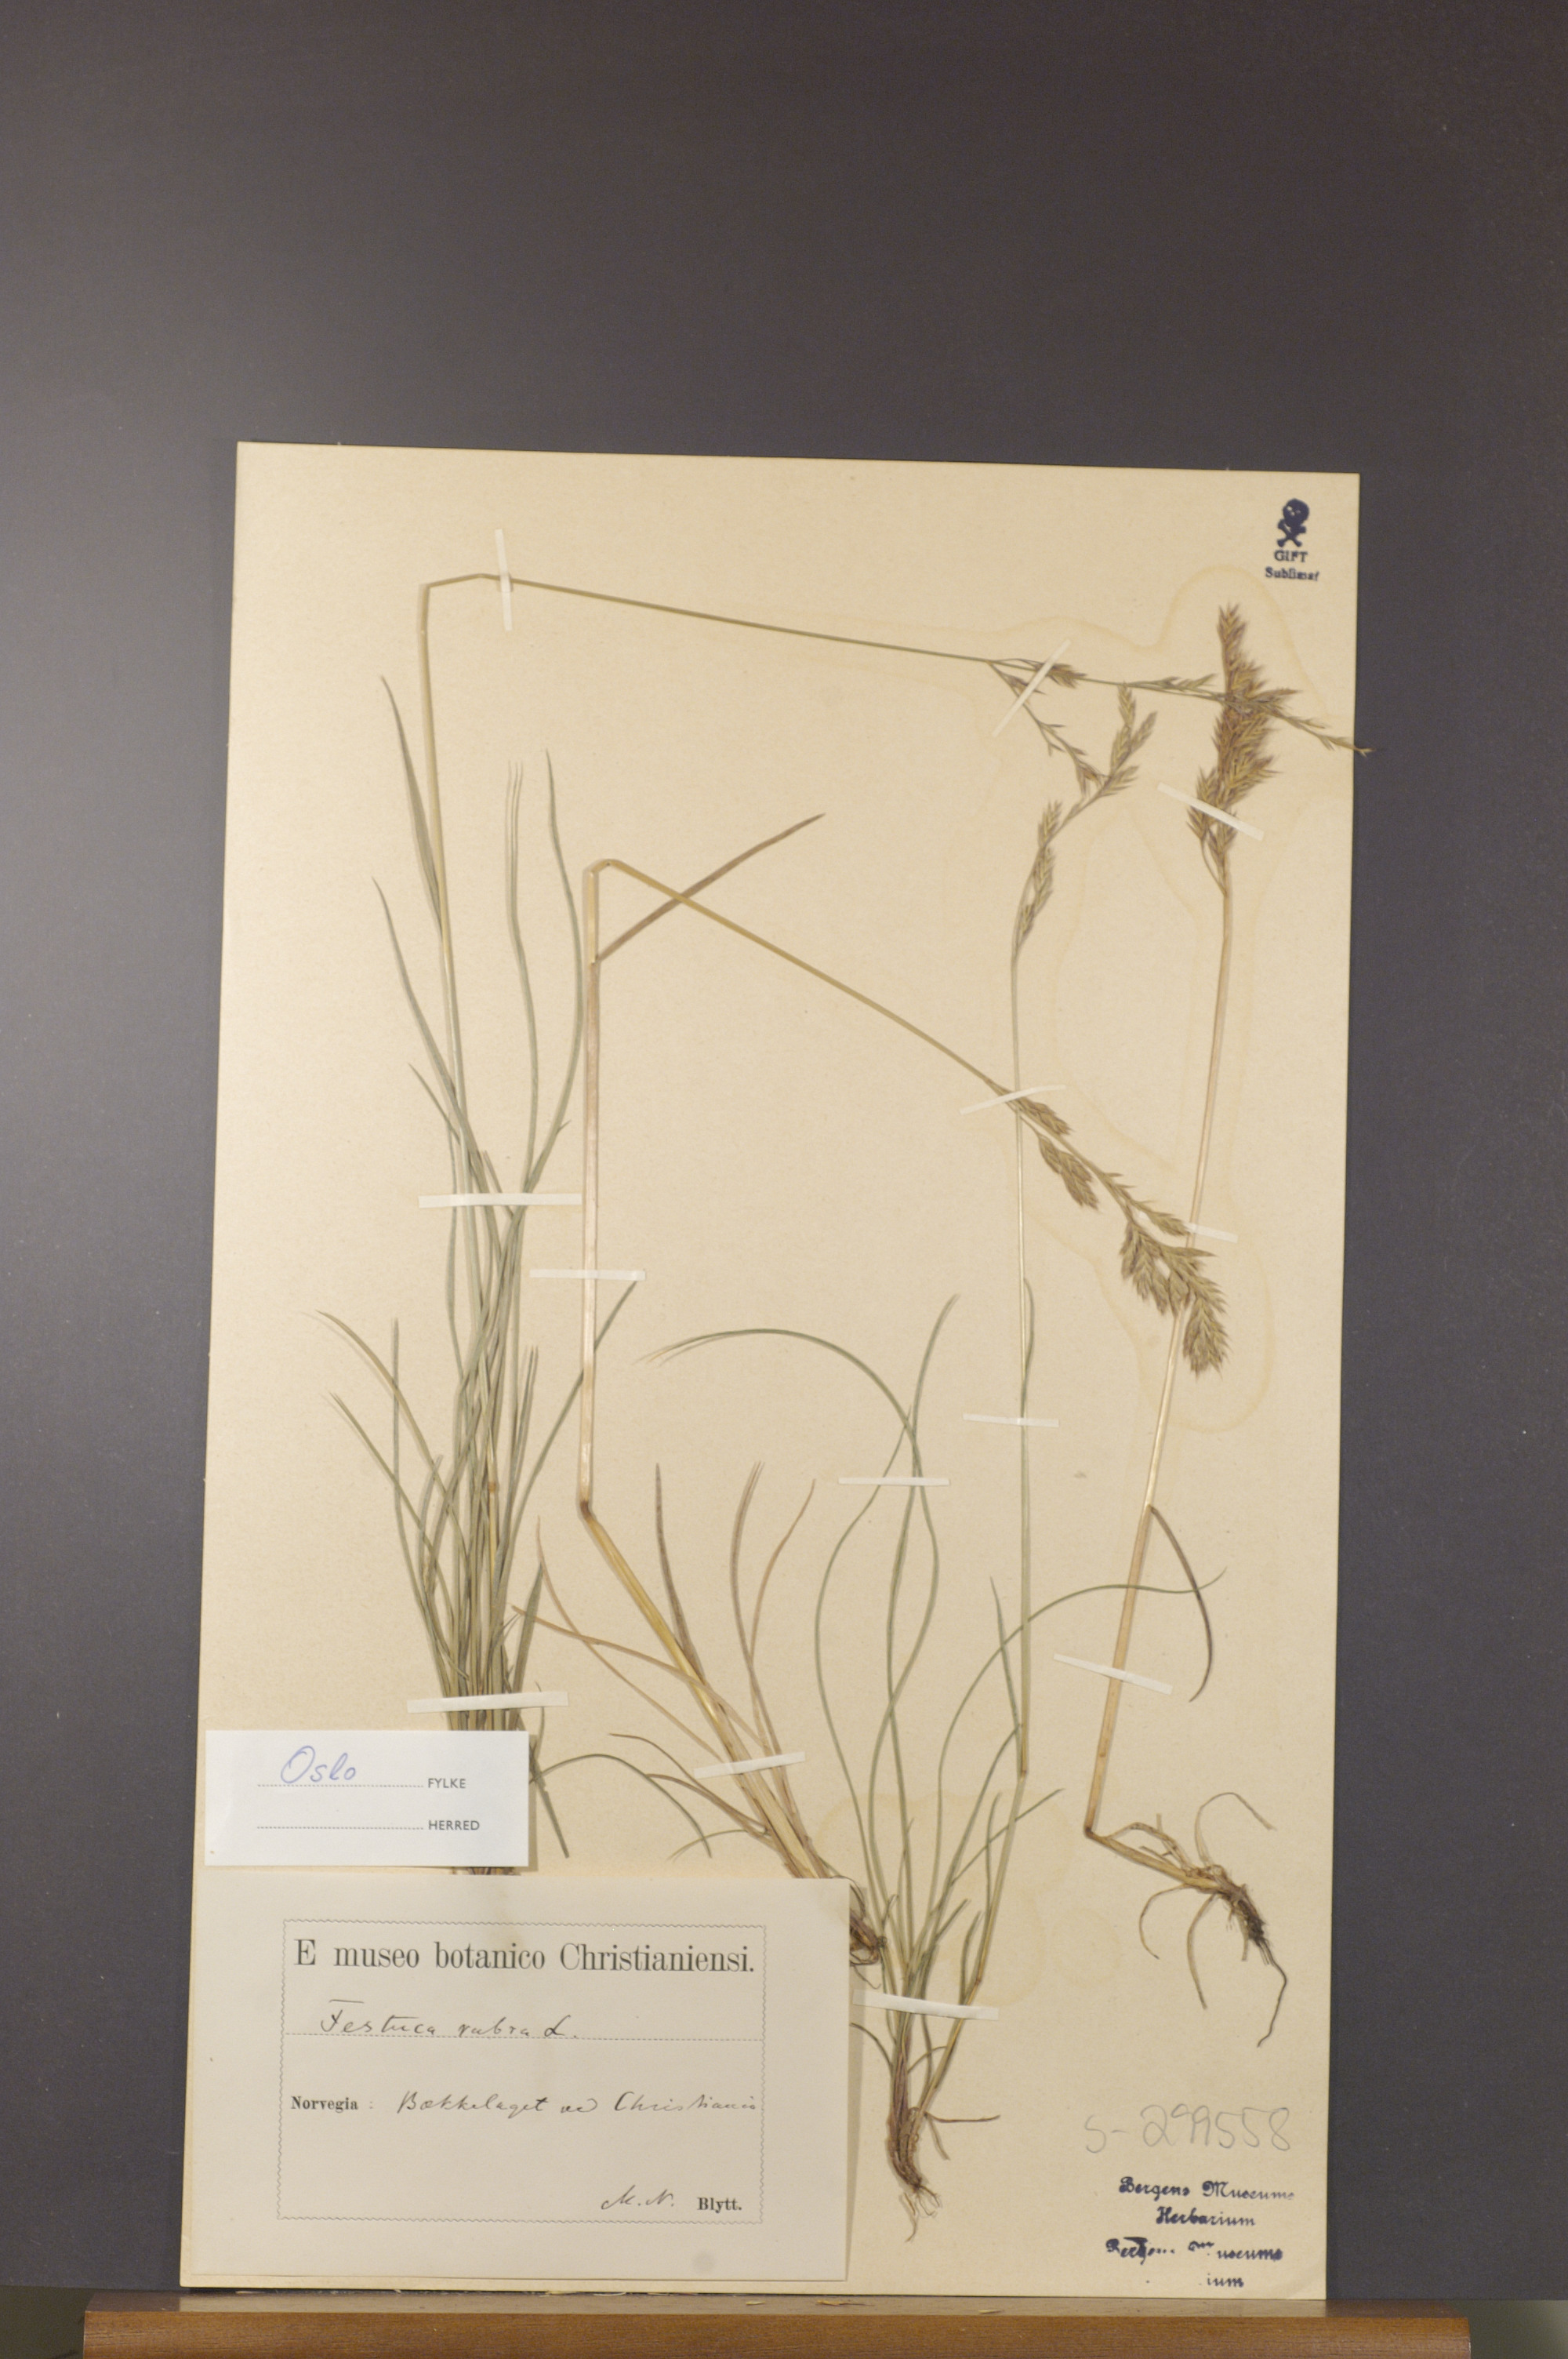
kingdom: Plantae
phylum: Tracheophyta
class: Liliopsida
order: Poales
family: Poaceae
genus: Festuca
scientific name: Festuca rubra
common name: Red fescue
